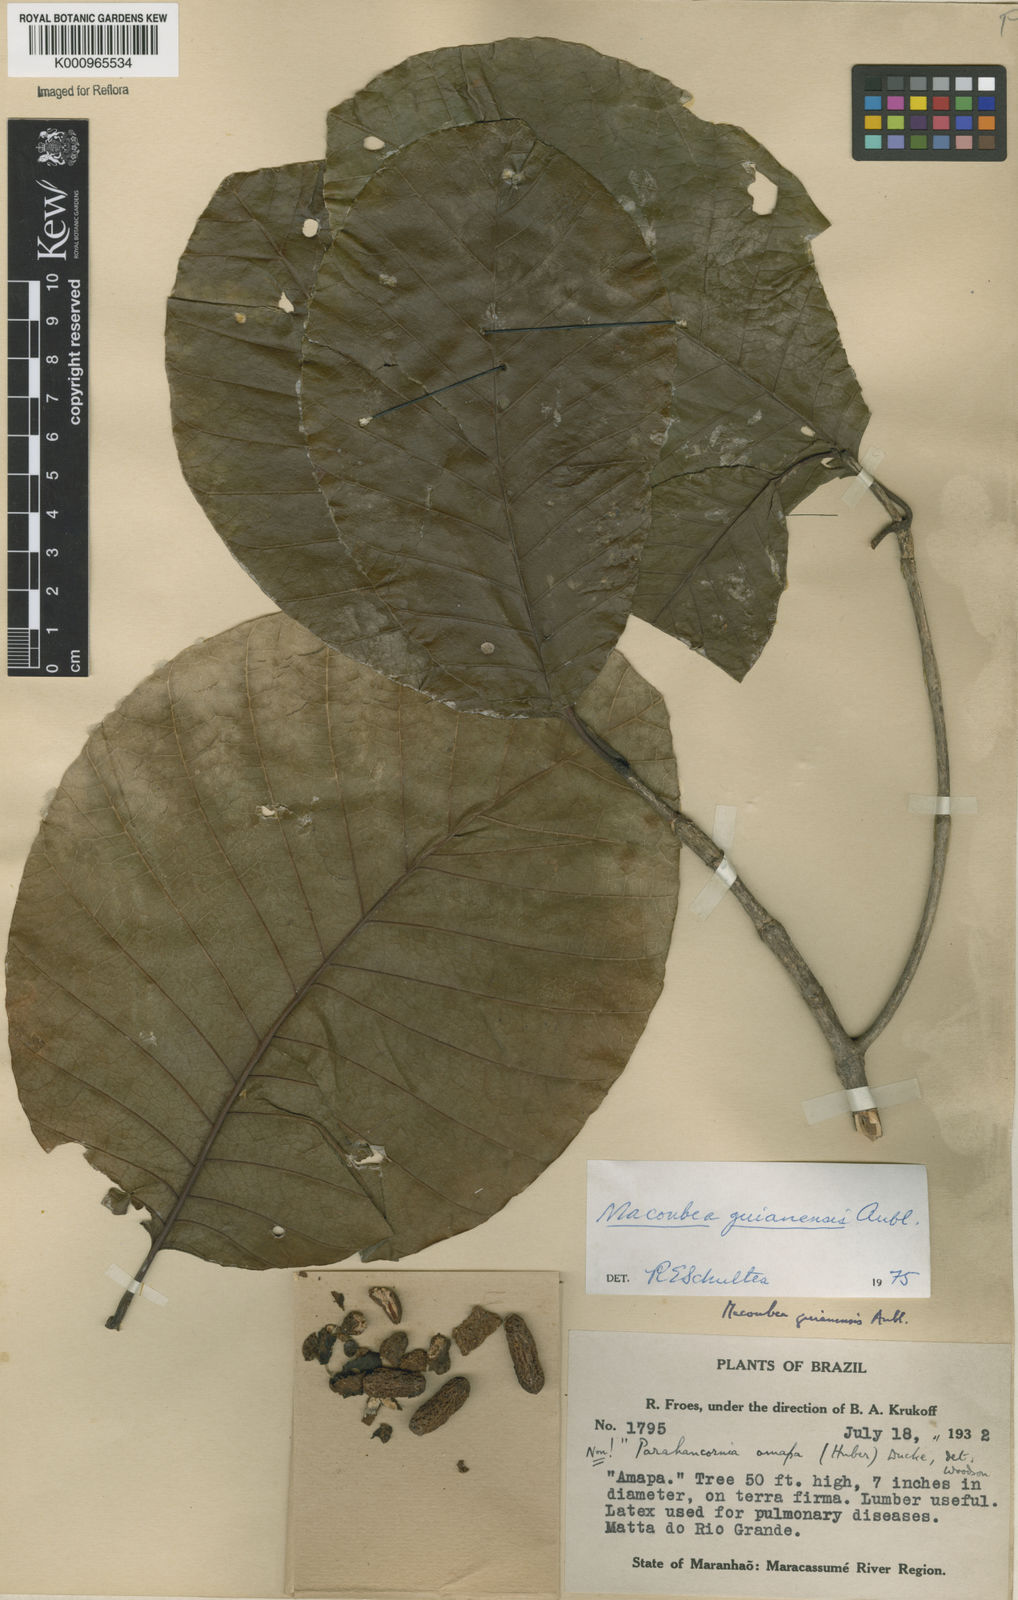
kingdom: Plantae
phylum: Tracheophyta
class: Magnoliopsida
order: Gentianales
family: Apocynaceae
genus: Macoubea
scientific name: Macoubea guianensis
